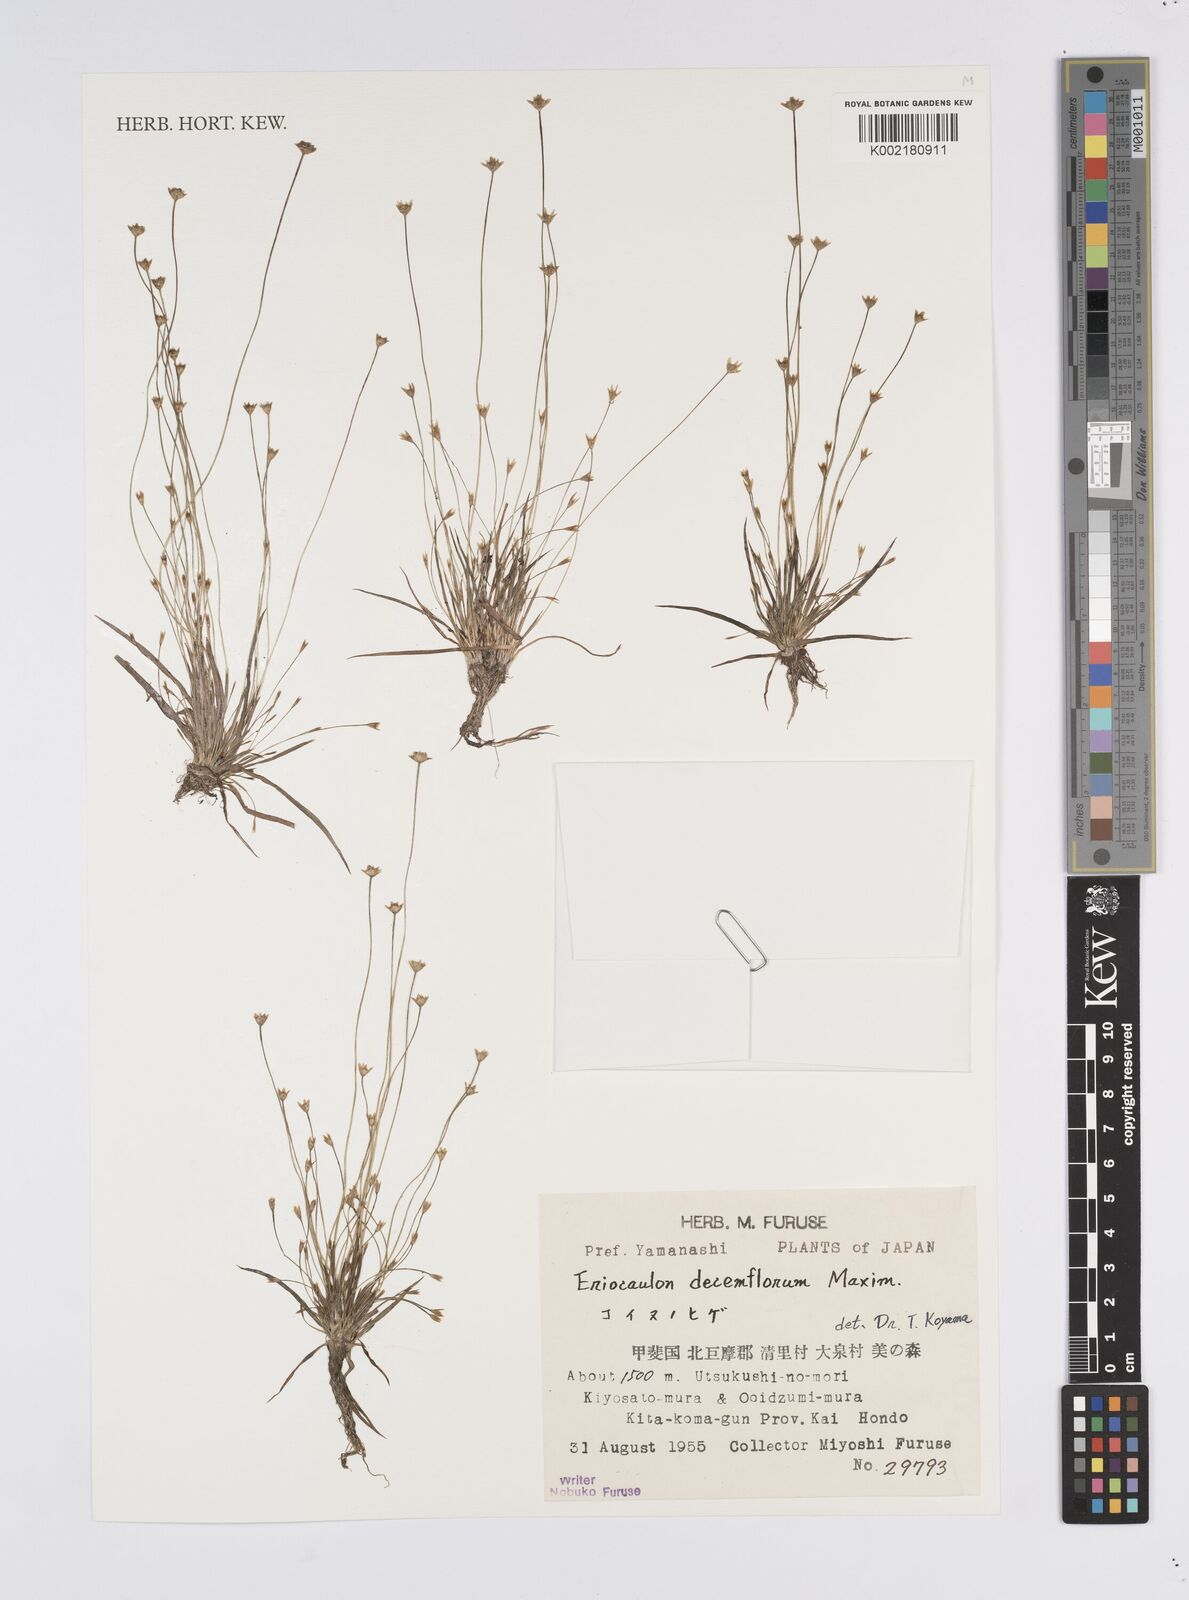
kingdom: Plantae
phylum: Tracheophyta
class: Liliopsida
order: Poales
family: Eriocaulaceae
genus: Eriocaulon
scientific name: Eriocaulon decemflorum
